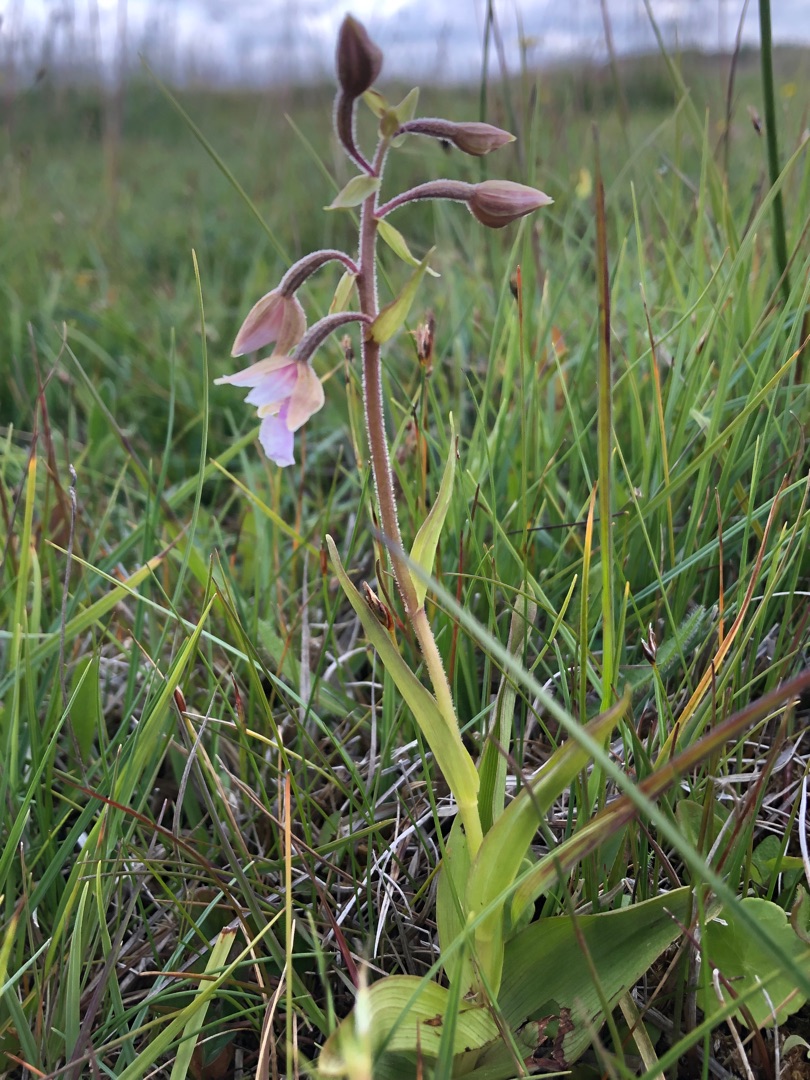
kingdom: Plantae
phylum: Tracheophyta
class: Liliopsida
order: Asparagales
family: Orchidaceae
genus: Epipactis
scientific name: Epipactis palustris
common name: Sump-hullæbe
